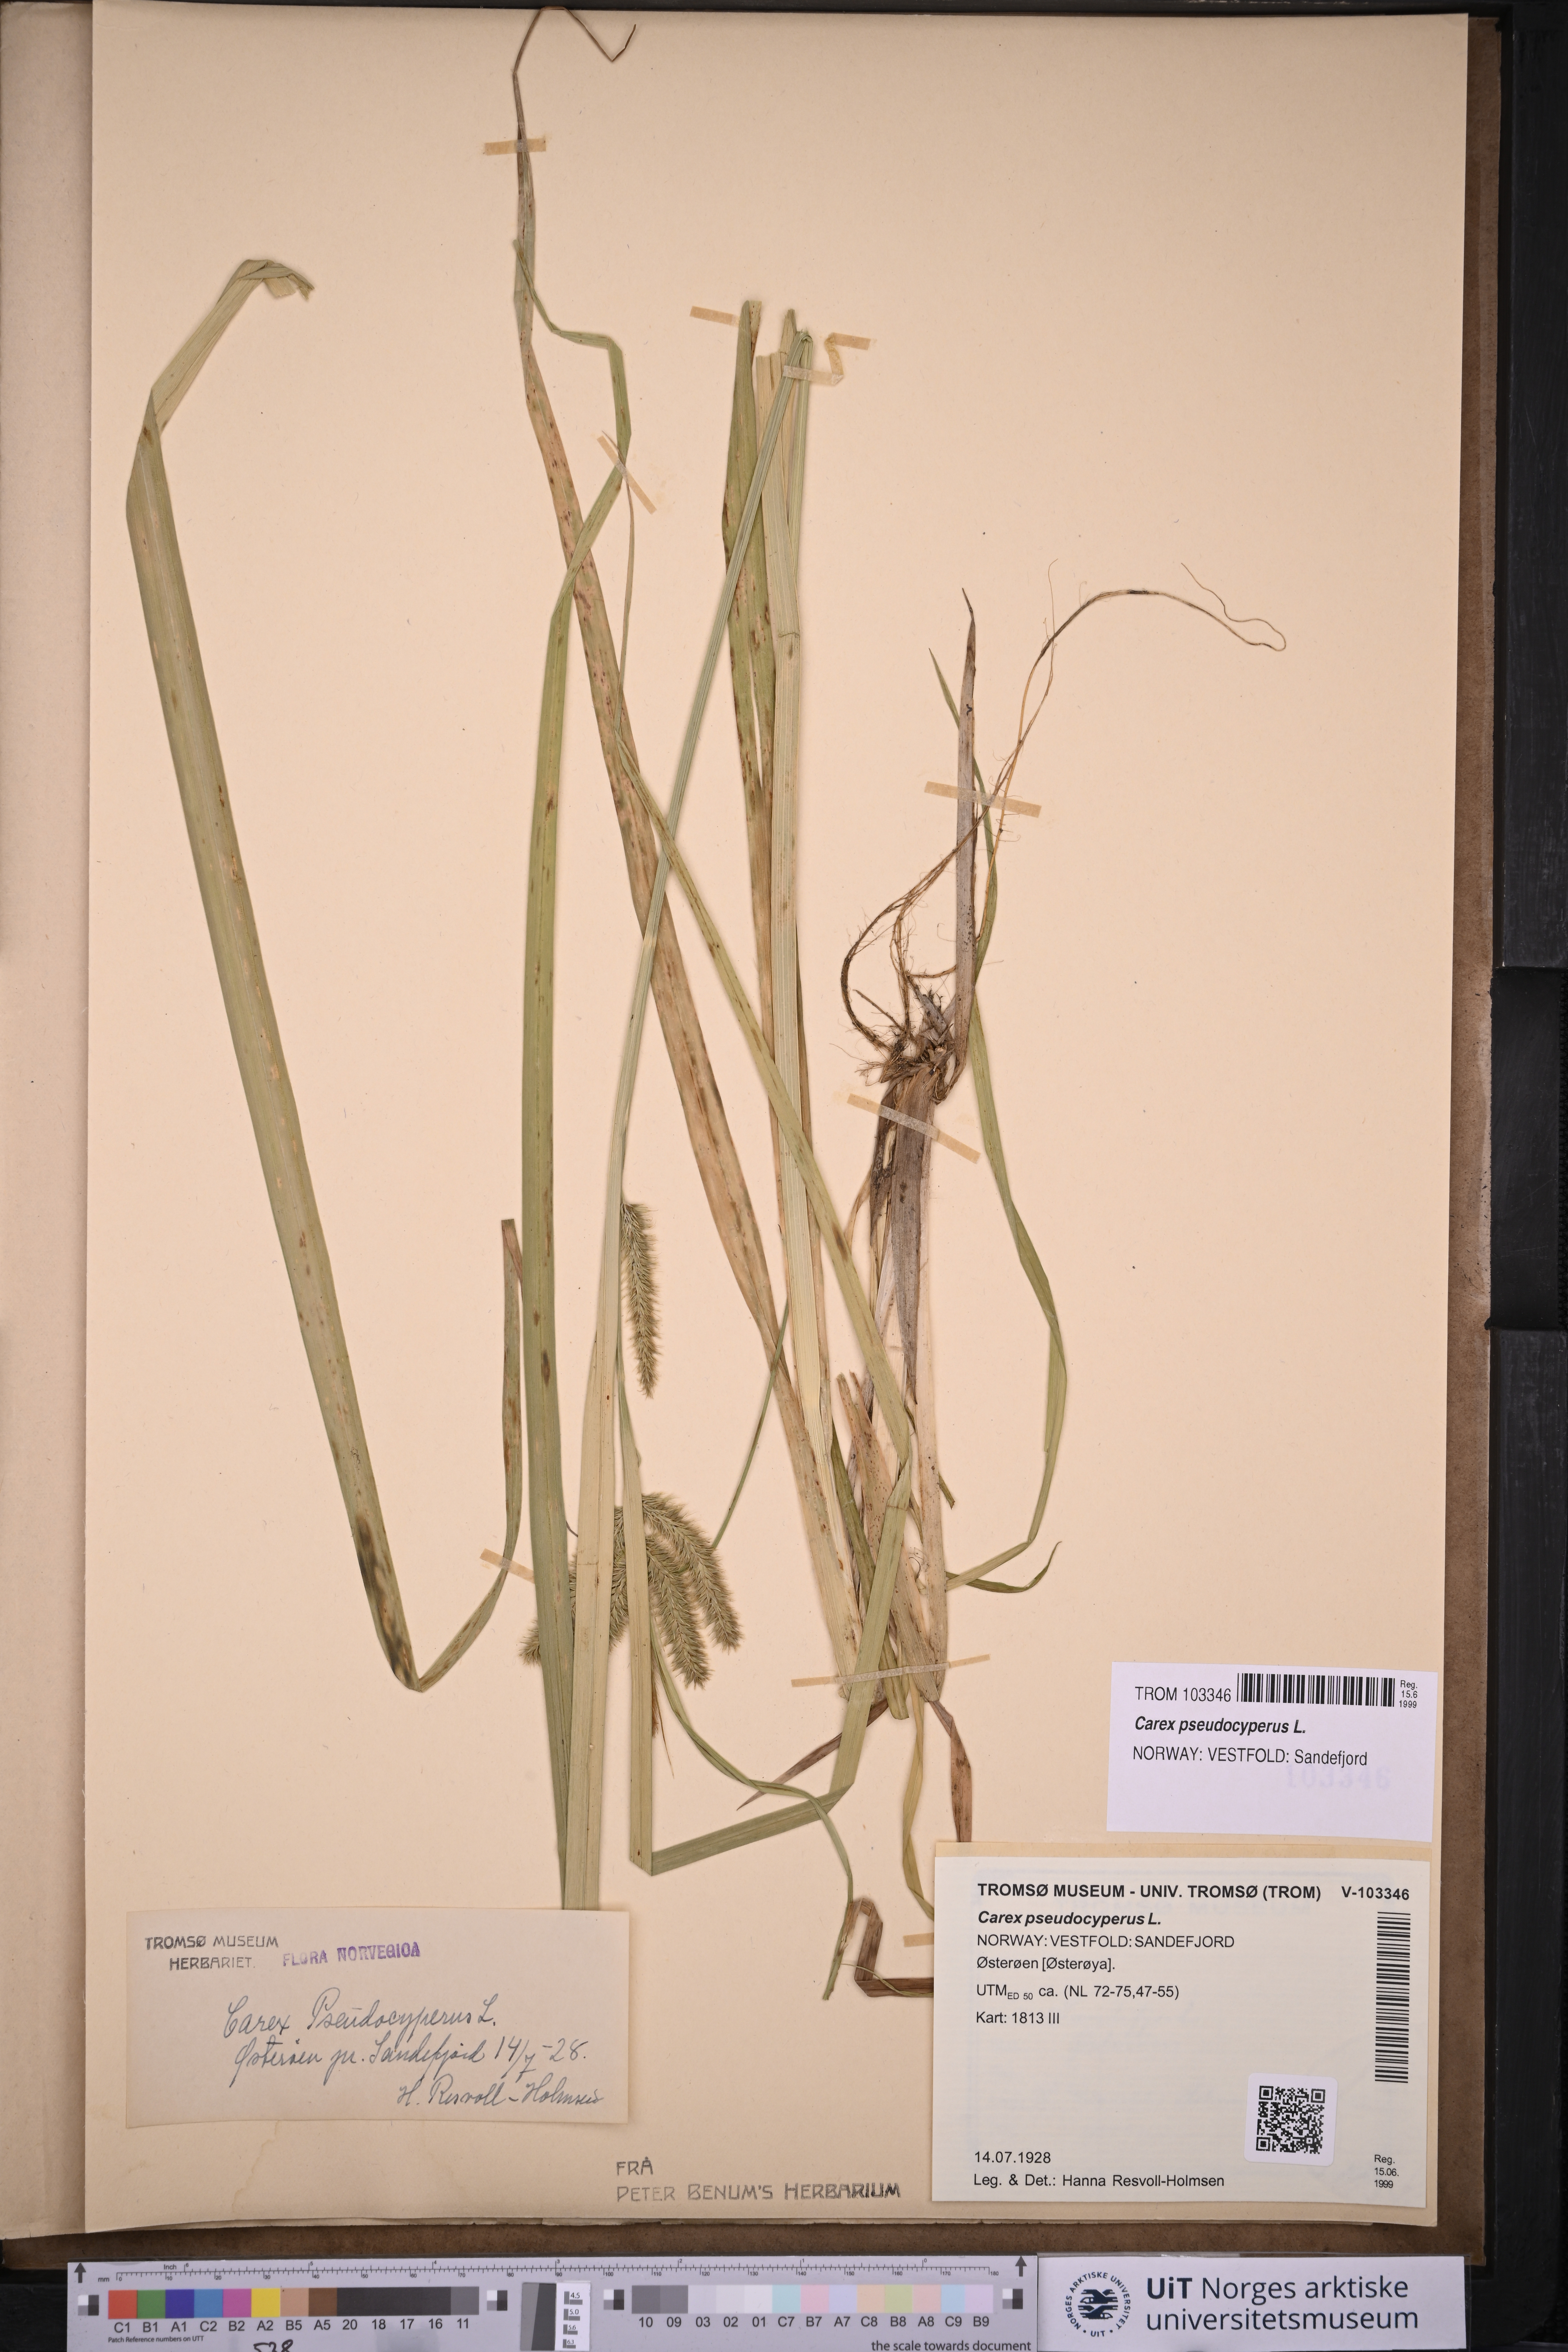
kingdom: Plantae
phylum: Tracheophyta
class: Liliopsida
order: Poales
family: Cyperaceae
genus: Carex
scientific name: Carex pseudocyperus
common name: Cyperus sedge
